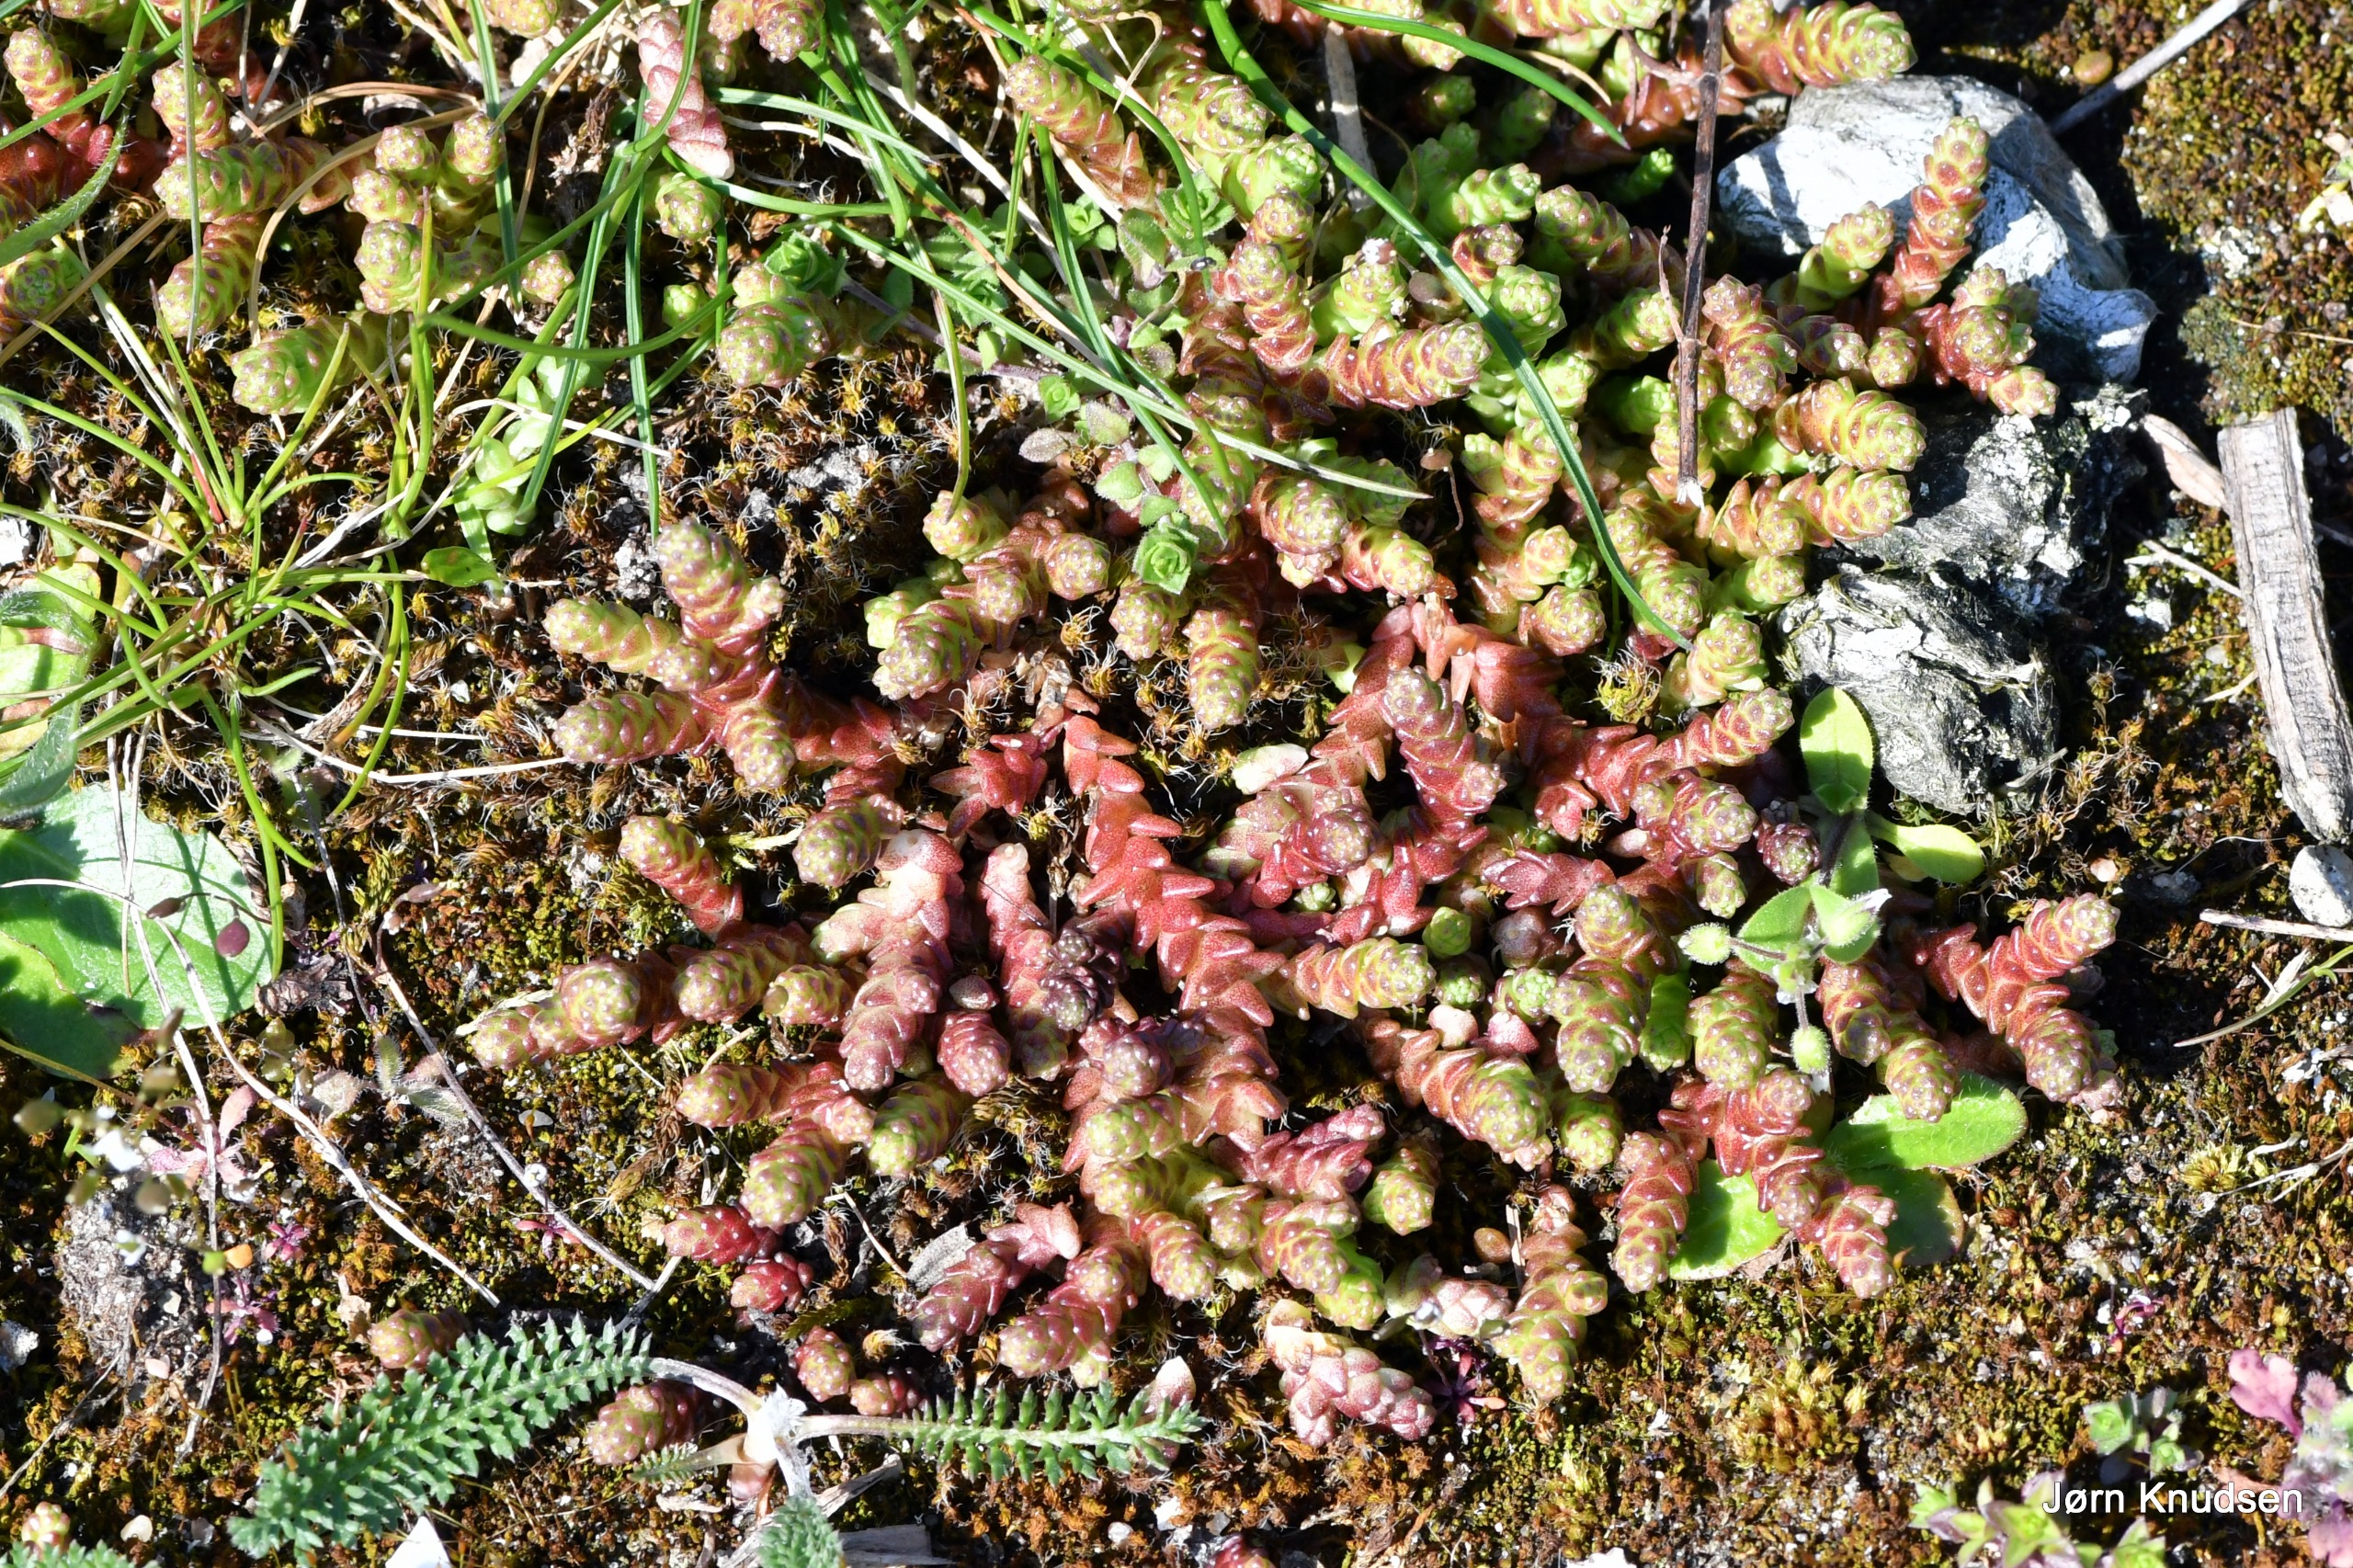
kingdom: Plantae
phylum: Tracheophyta
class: Magnoliopsida
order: Saxifragales
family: Crassulaceae
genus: Sedum
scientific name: Sedum acre
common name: Bidende stenurt
